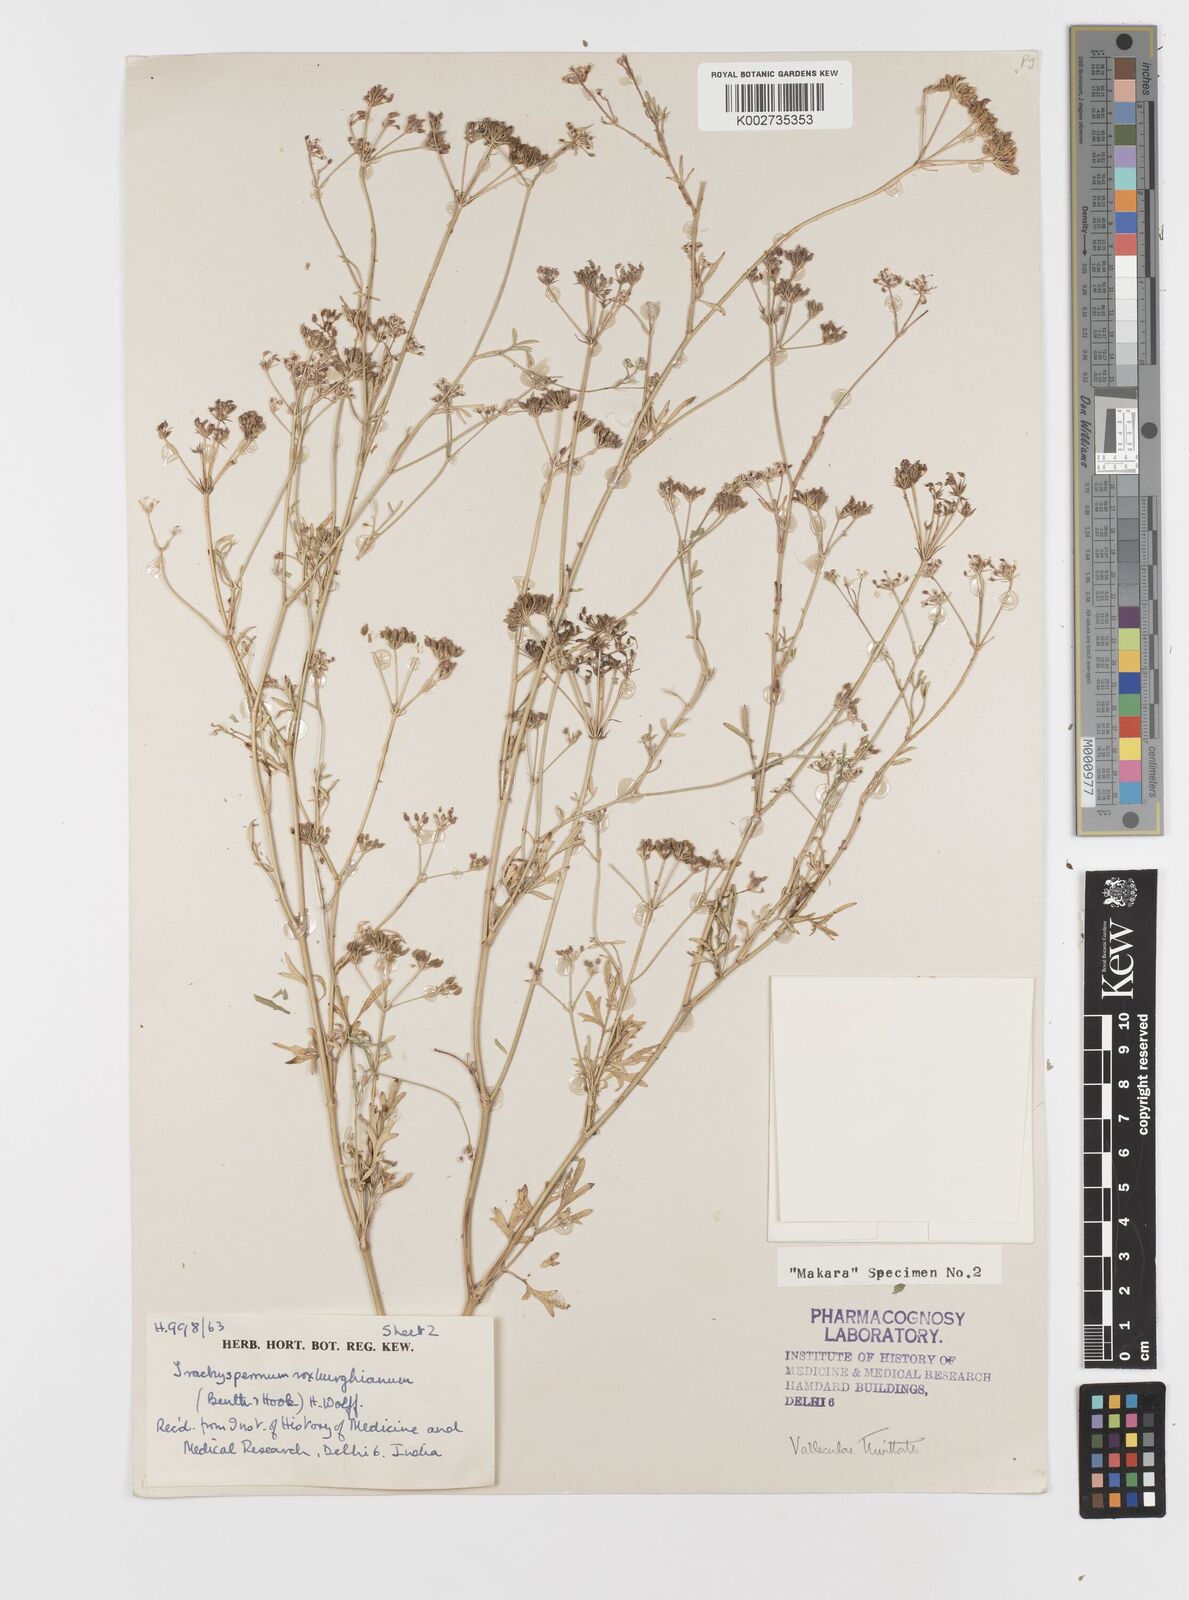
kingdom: Plantae
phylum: Tracheophyta
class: Magnoliopsida
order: Apiales
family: Apiaceae
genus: Psammogeton
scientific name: Psammogeton involucratum
